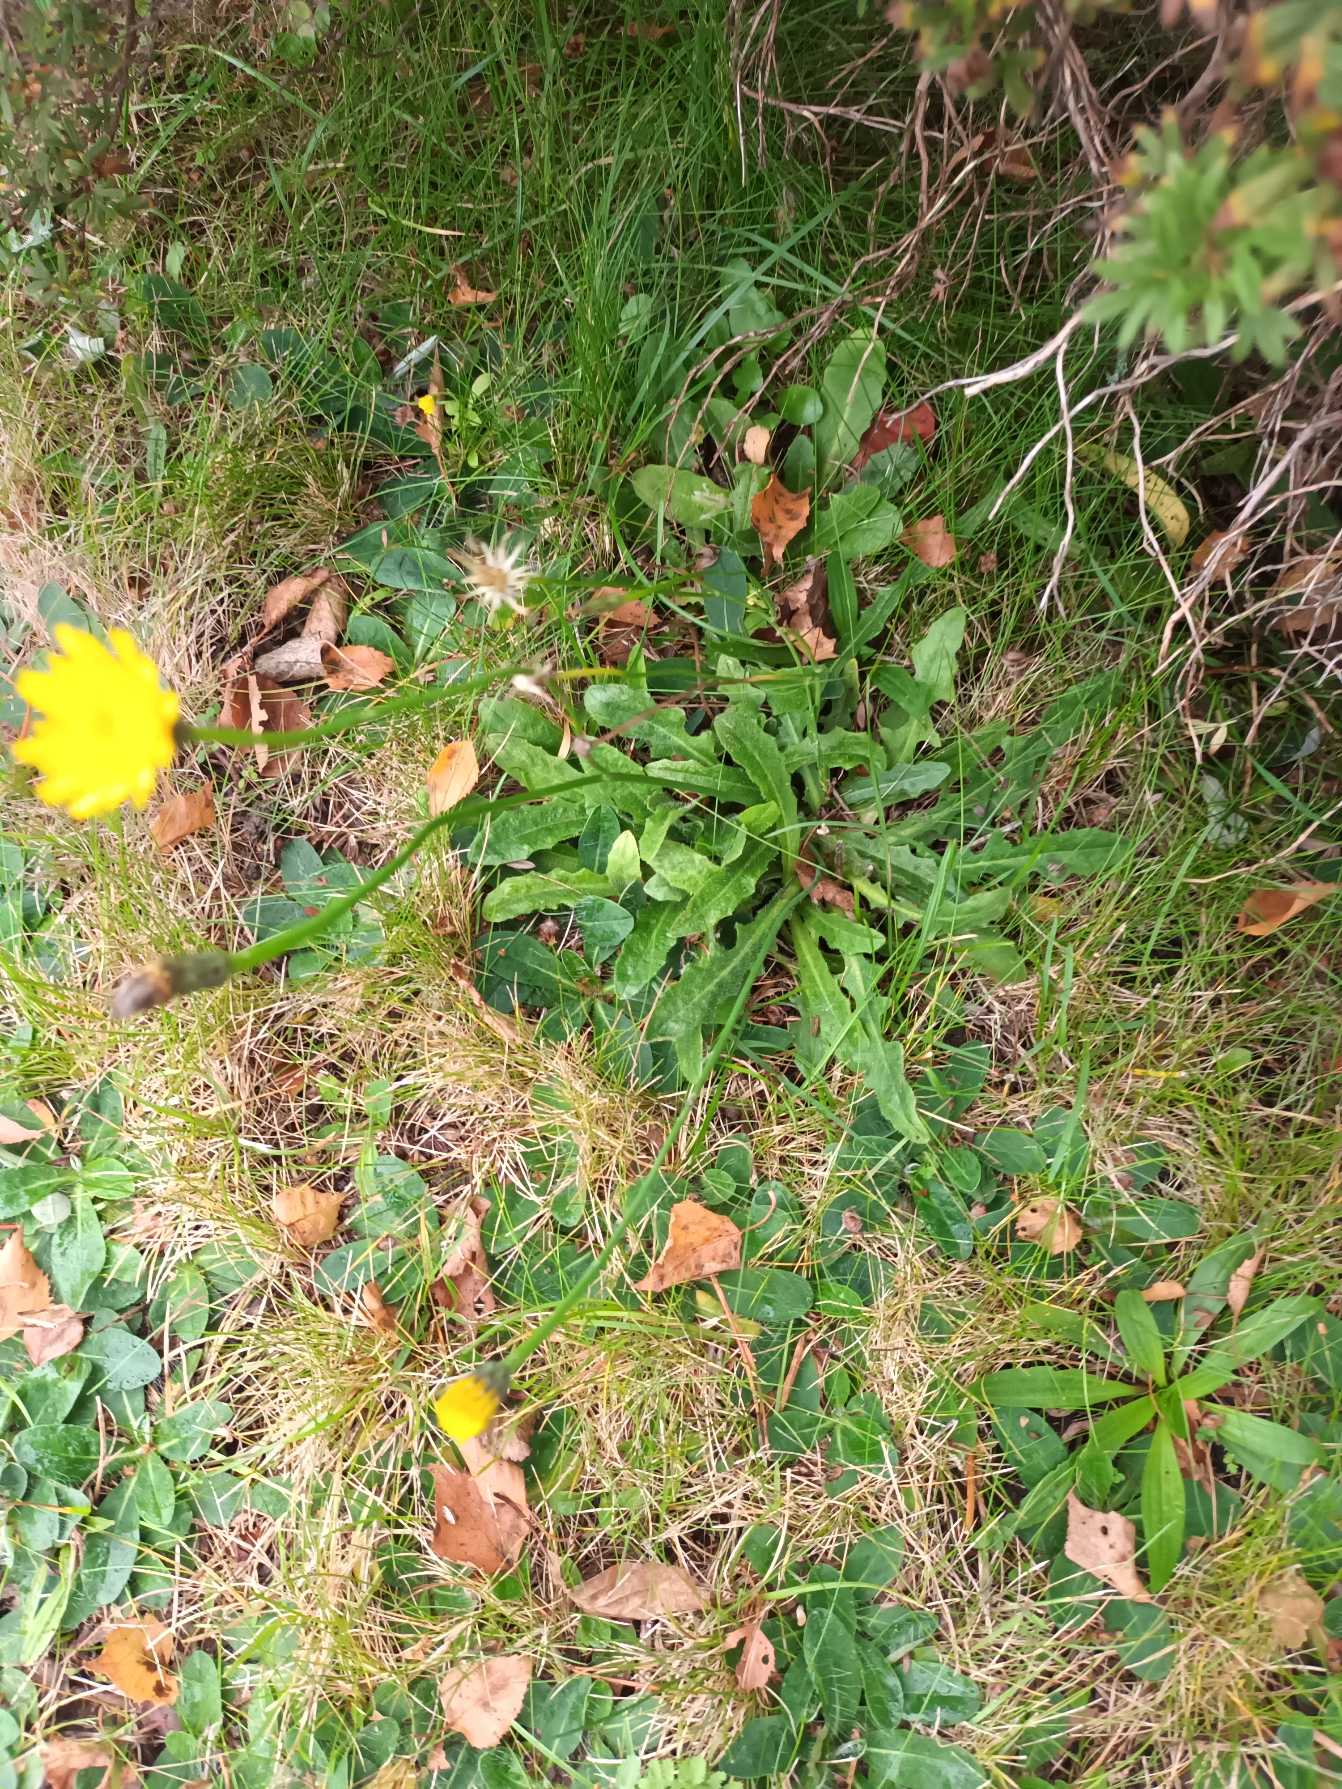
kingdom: Plantae
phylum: Tracheophyta
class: Magnoliopsida
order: Asterales
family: Asteraceae
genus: Hypochaeris
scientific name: Hypochaeris radicata
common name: Almindelig kongepen
